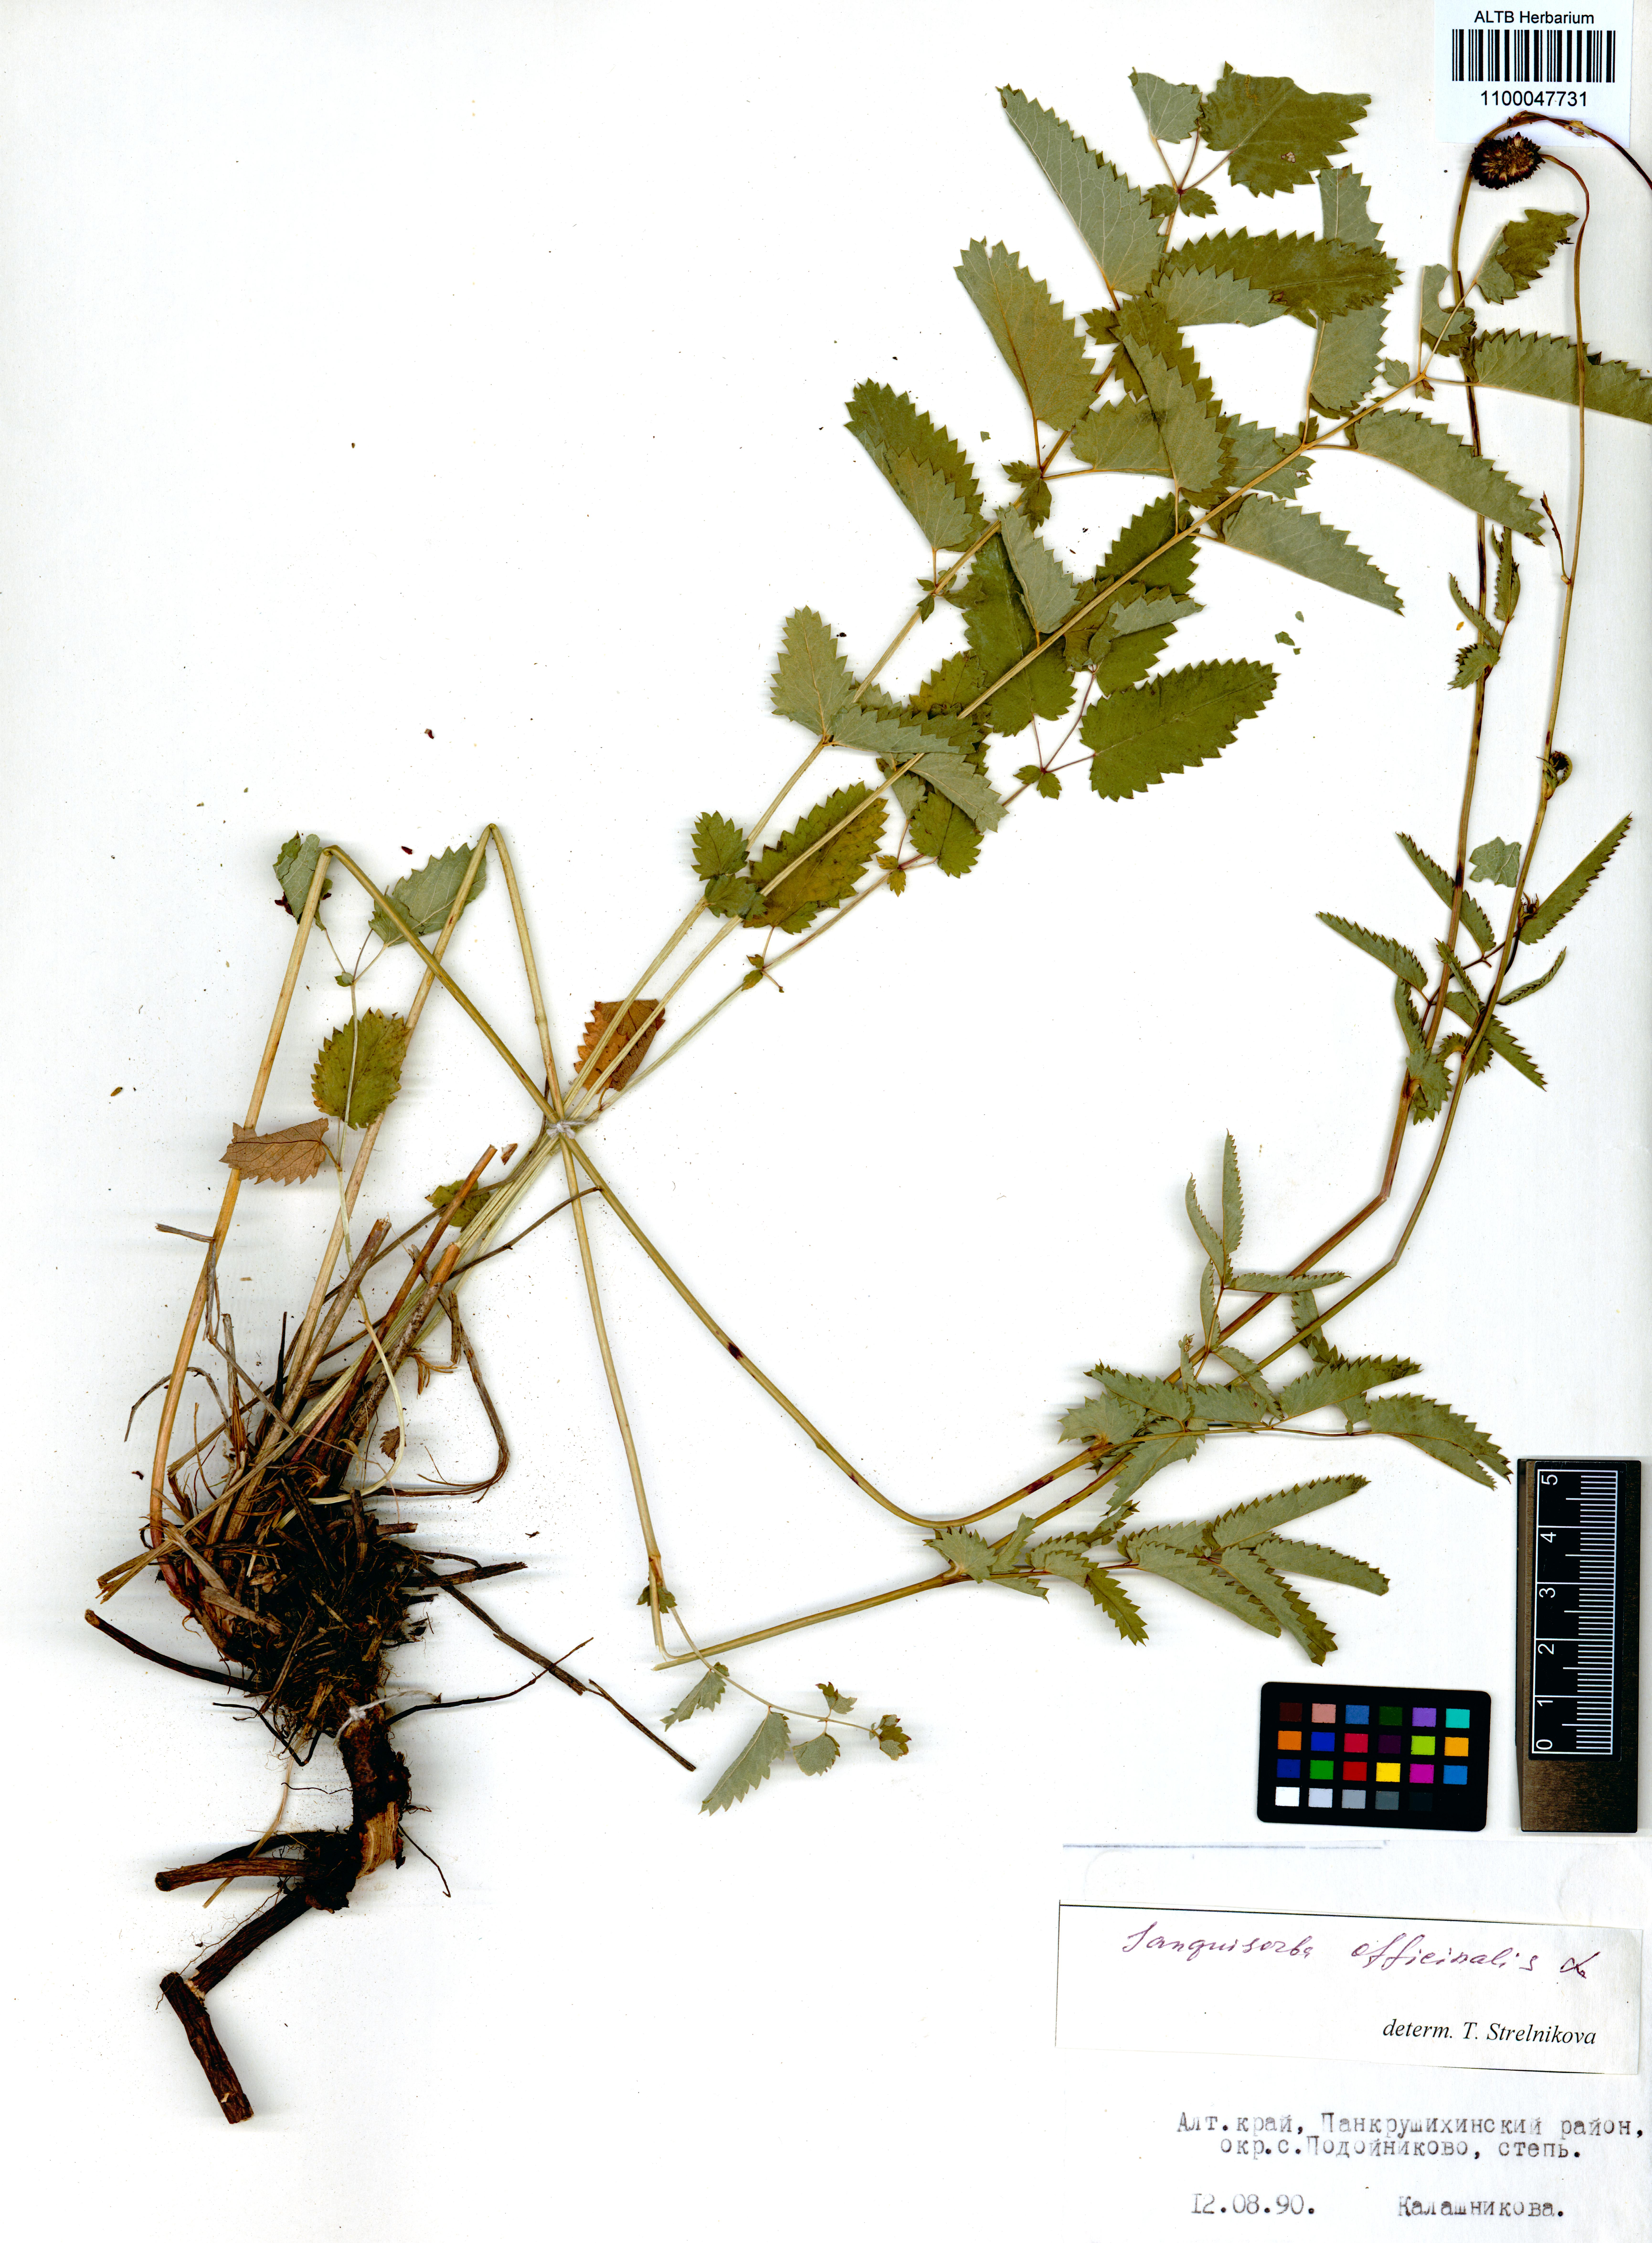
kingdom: Plantae
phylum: Tracheophyta
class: Magnoliopsida
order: Rosales
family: Rosaceae
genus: Sanguisorba
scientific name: Sanguisorba officinalis
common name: Great burnet
